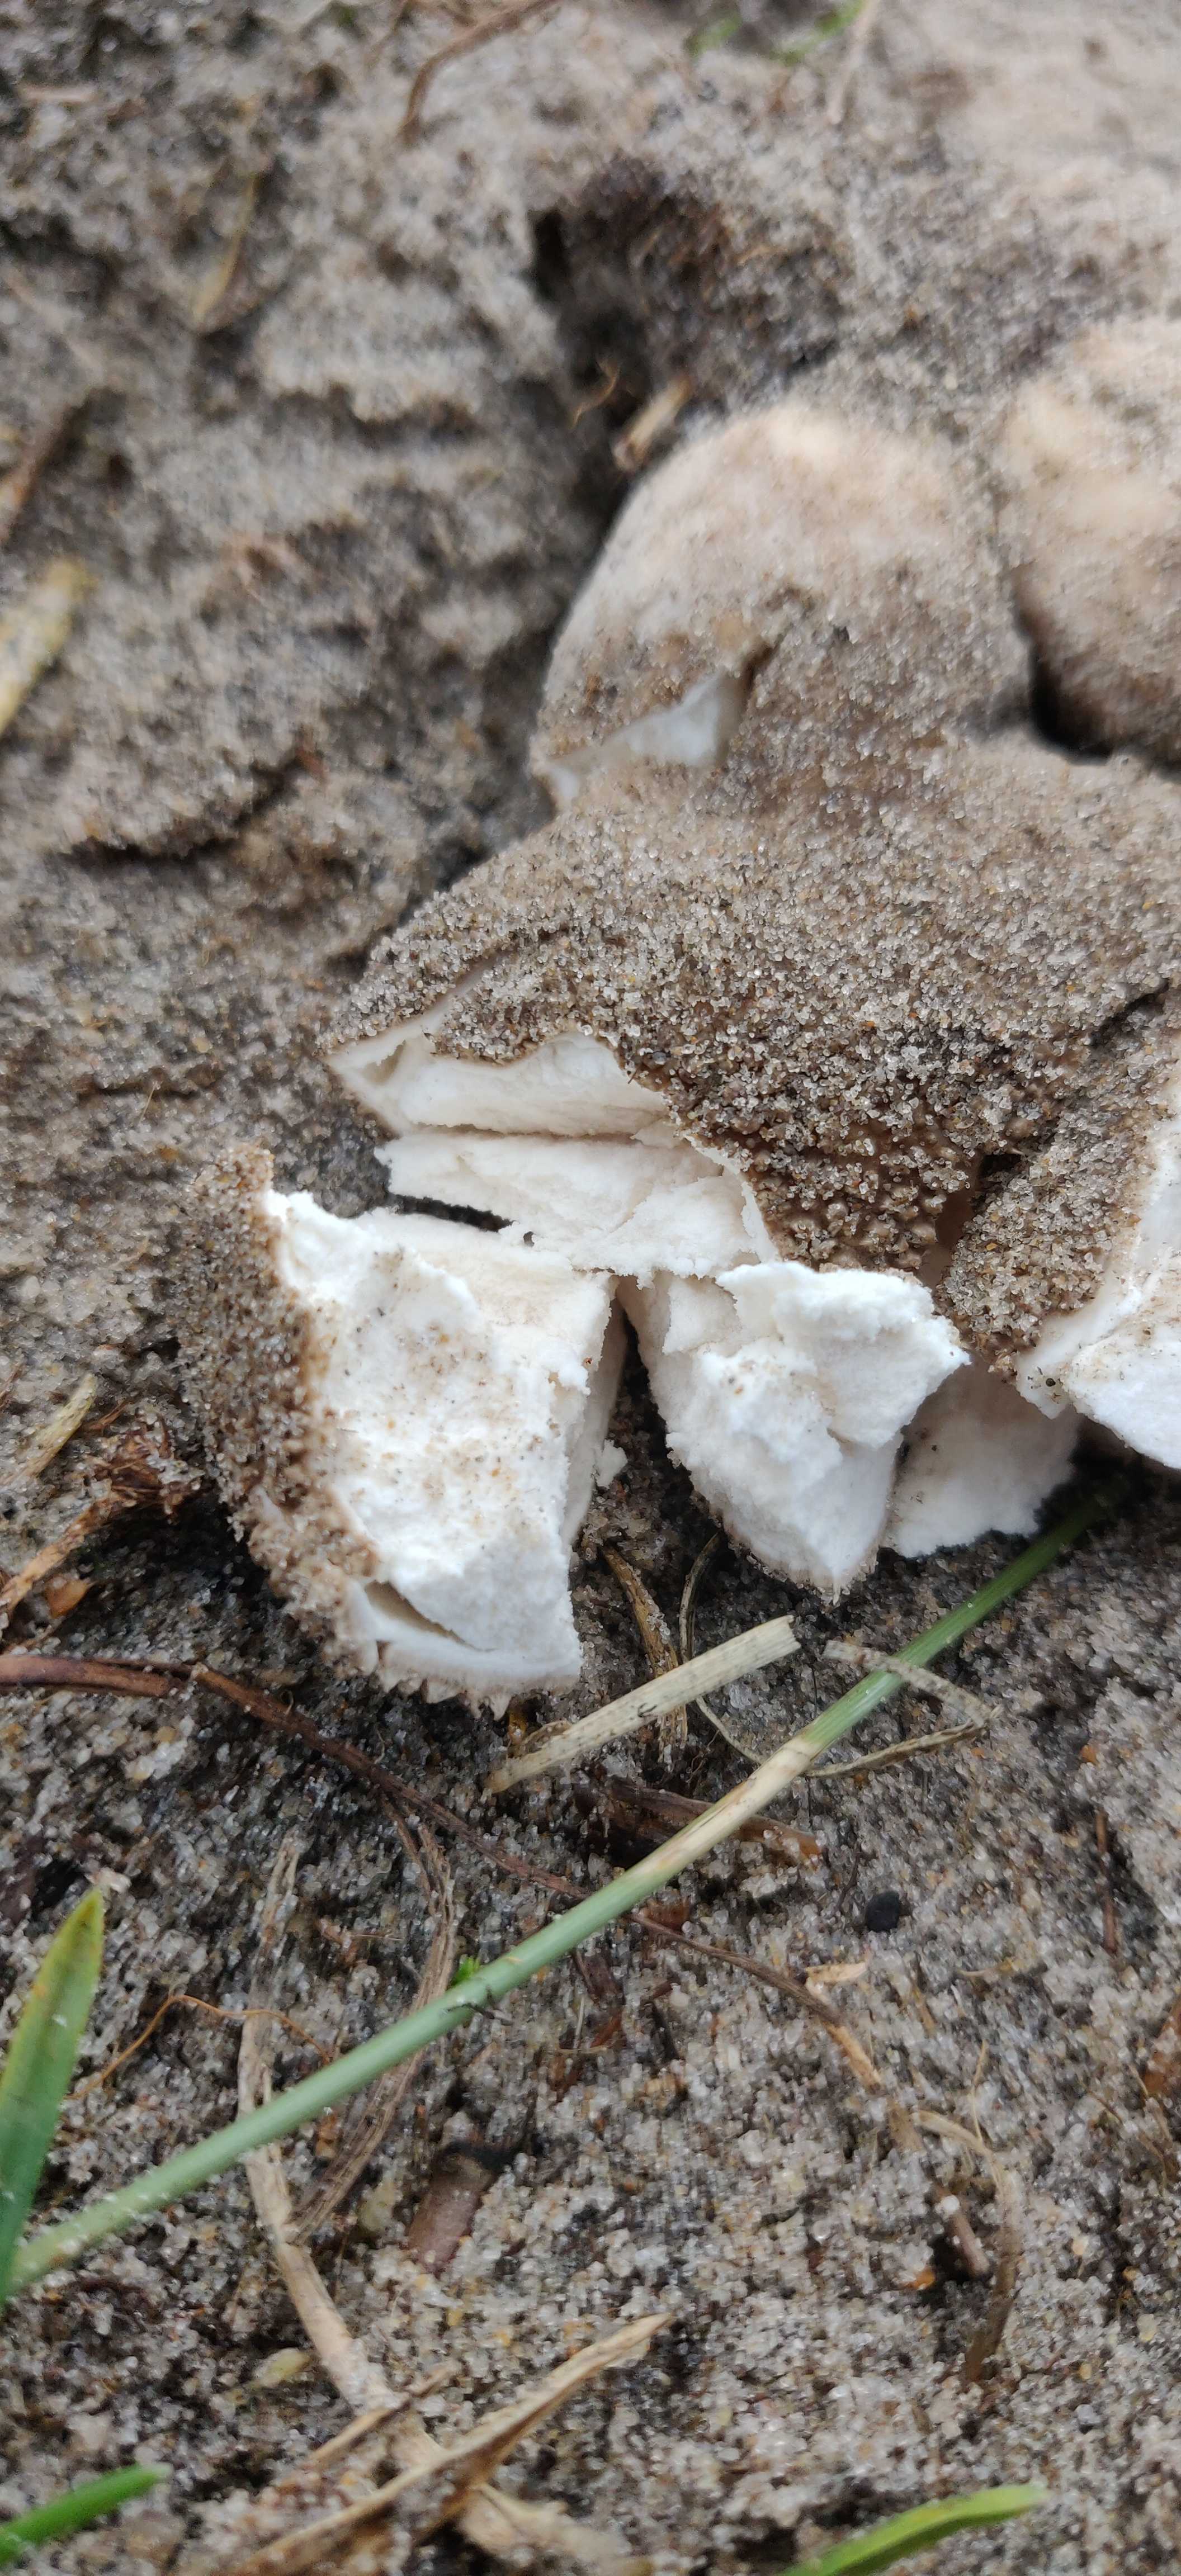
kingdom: Fungi
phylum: Basidiomycota
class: Agaricomycetes
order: Agaricales
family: Lycoperdaceae
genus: Lycoperdon
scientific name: Lycoperdon nigrescens
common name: sortagtig støvbold
